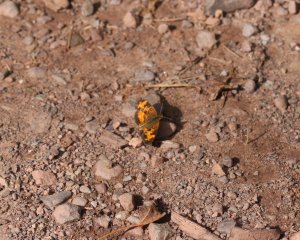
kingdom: Animalia
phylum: Arthropoda
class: Insecta
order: Lepidoptera
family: Nymphalidae
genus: Phyciodes
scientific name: Phyciodes tharos
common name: Northern Crescent
